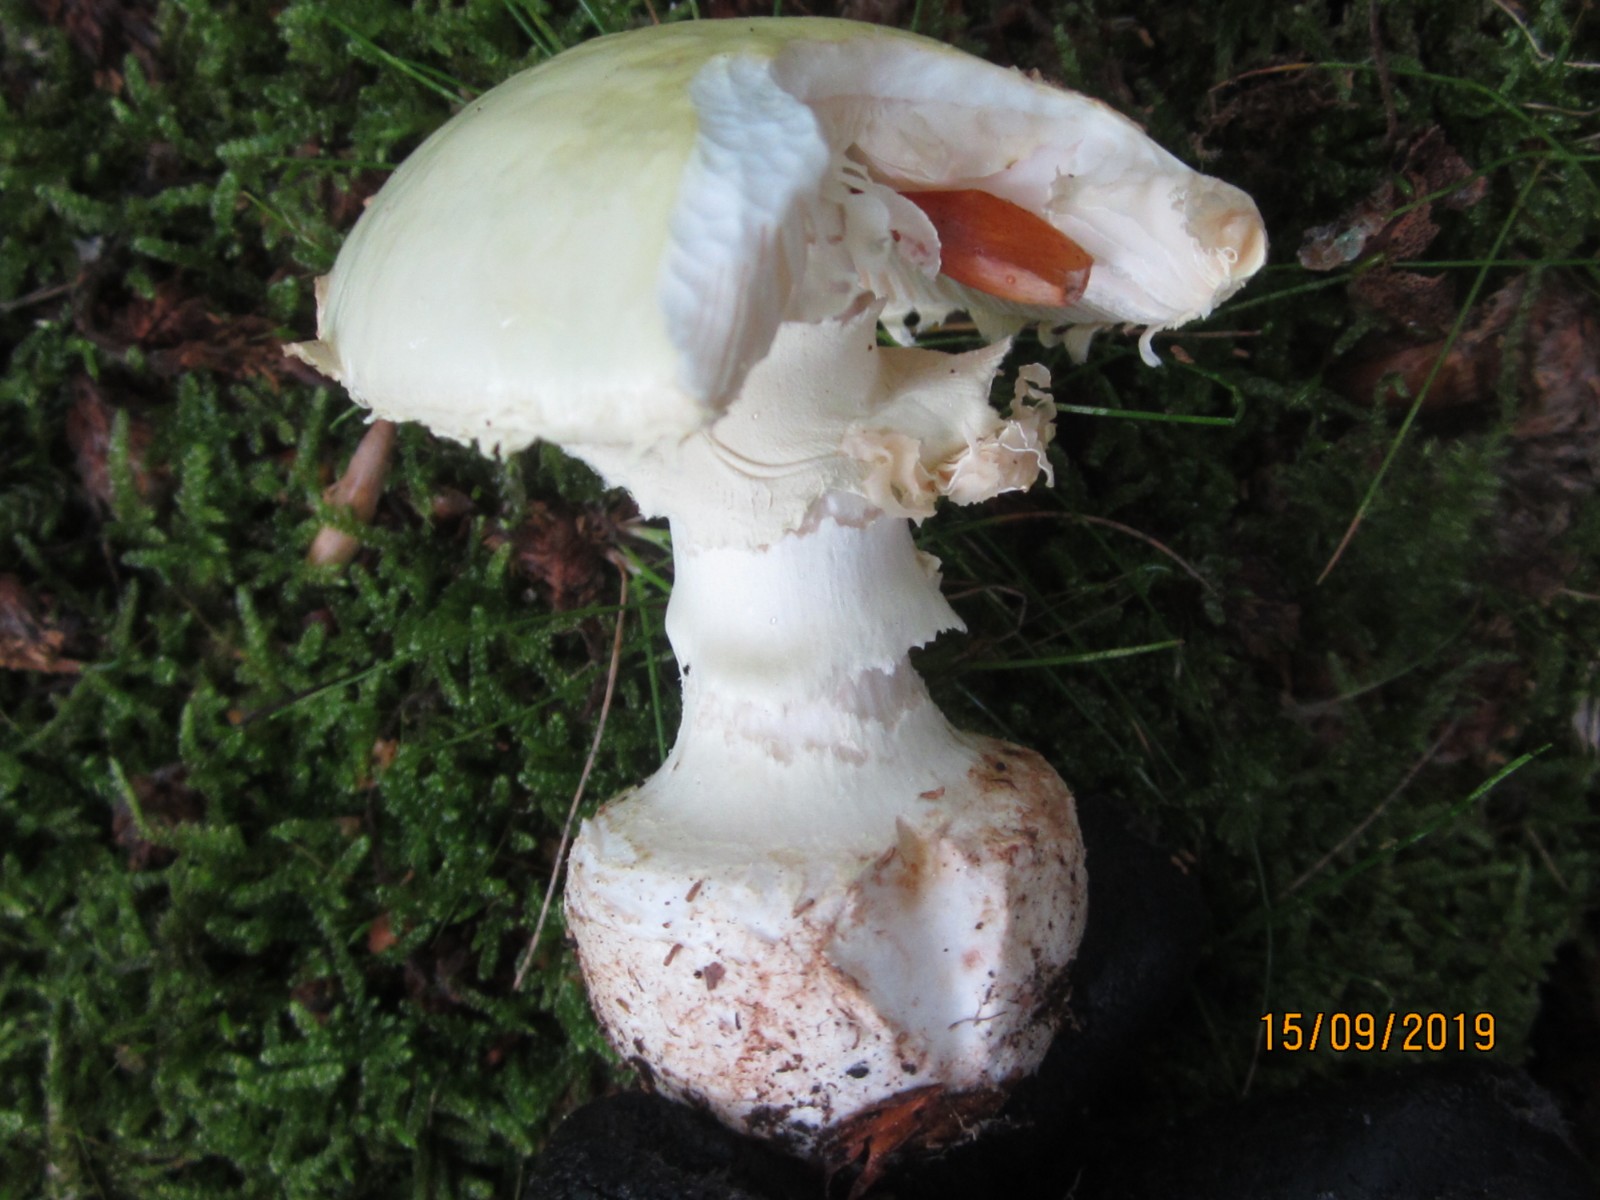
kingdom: Fungi
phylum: Basidiomycota
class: Agaricomycetes
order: Agaricales
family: Amanitaceae
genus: Amanita
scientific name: Amanita citrina
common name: kugleknoldet fluesvamp
